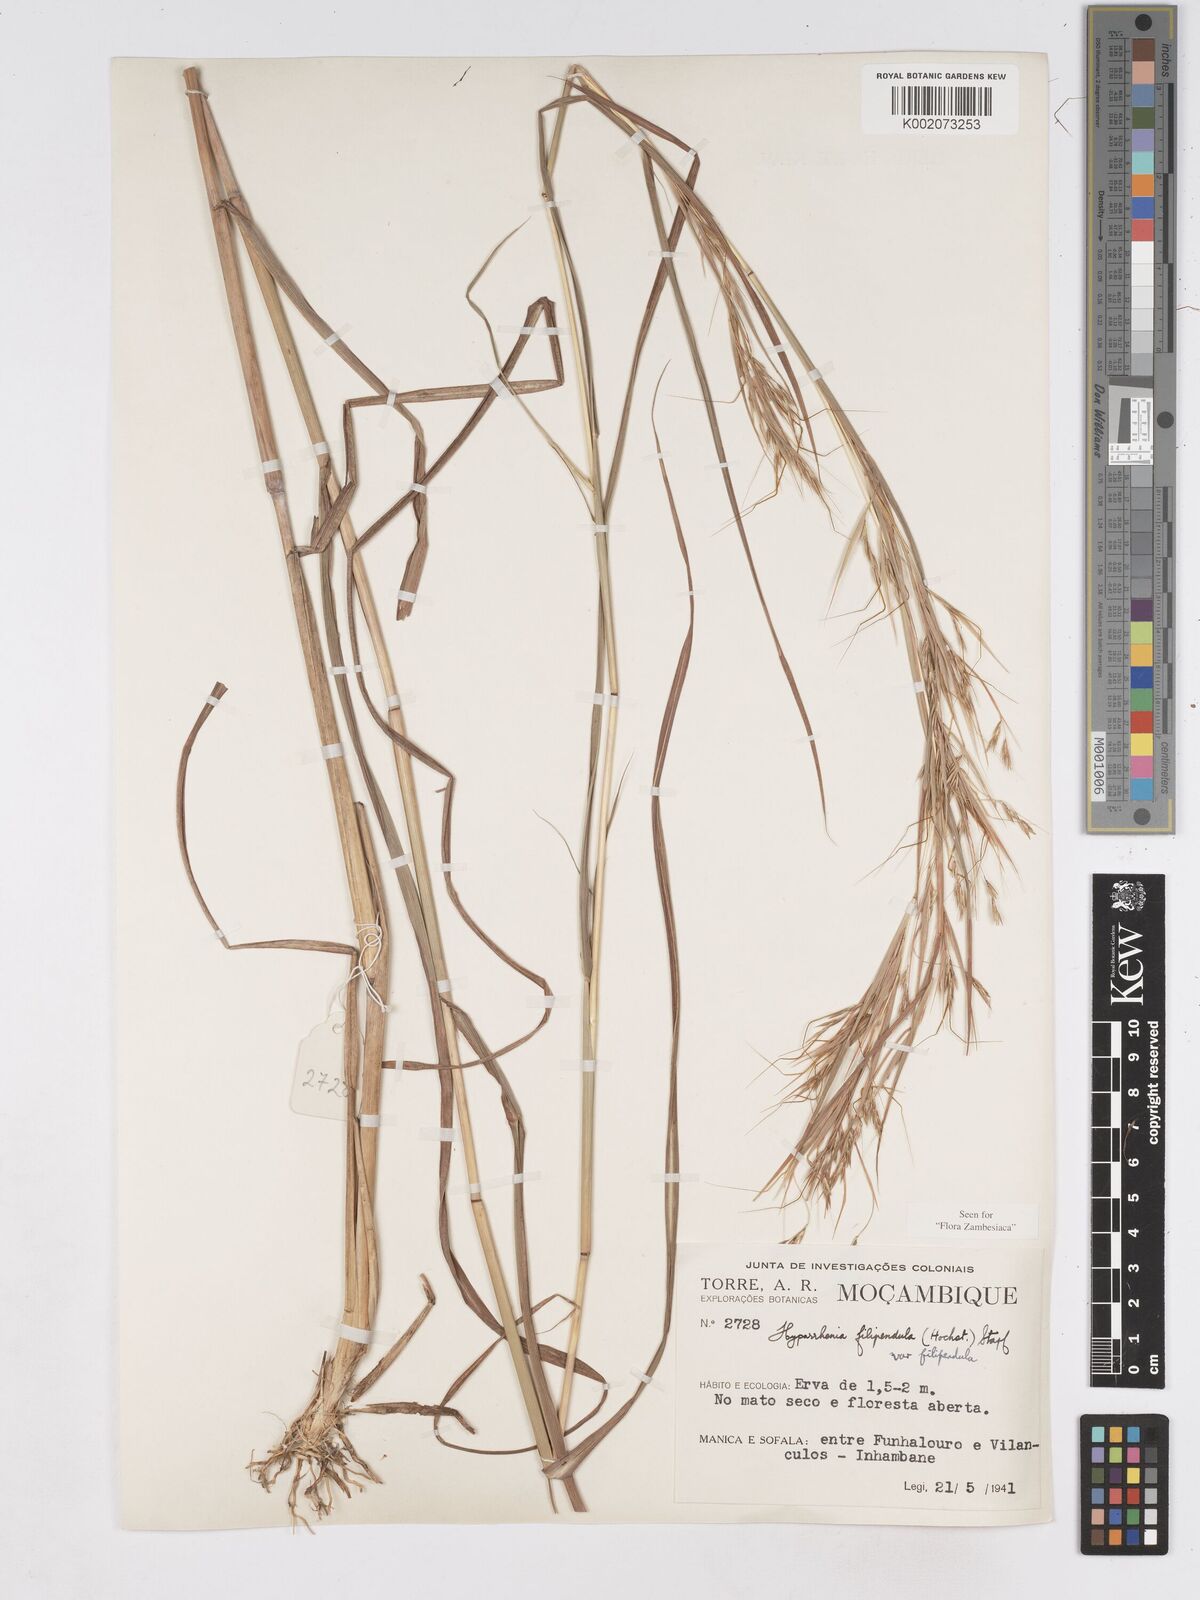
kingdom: Plantae
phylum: Tracheophyta
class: Liliopsida
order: Poales
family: Poaceae
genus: Hyparrhenia
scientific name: Hyparrhenia filipendula
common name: Tambookie grass
